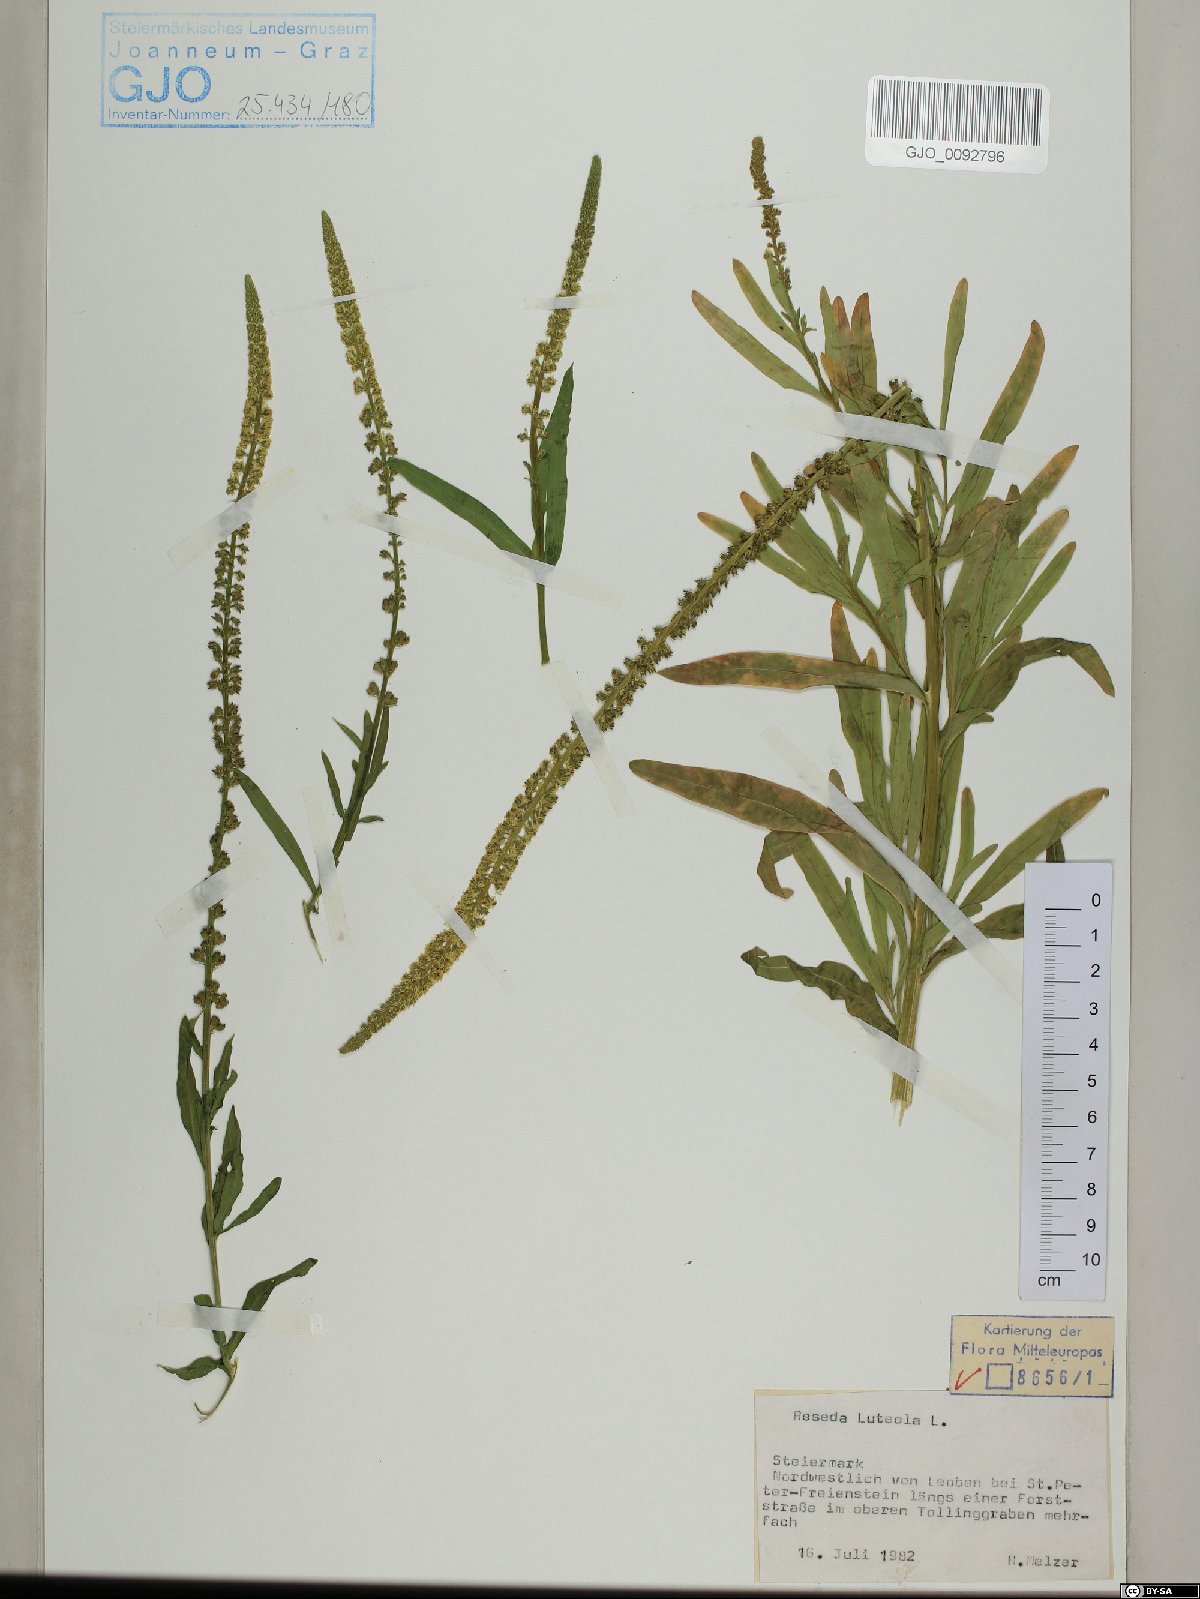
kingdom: Plantae
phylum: Tracheophyta
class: Magnoliopsida
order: Brassicales
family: Resedaceae
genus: Reseda
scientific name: Reseda luteola
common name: Weld
